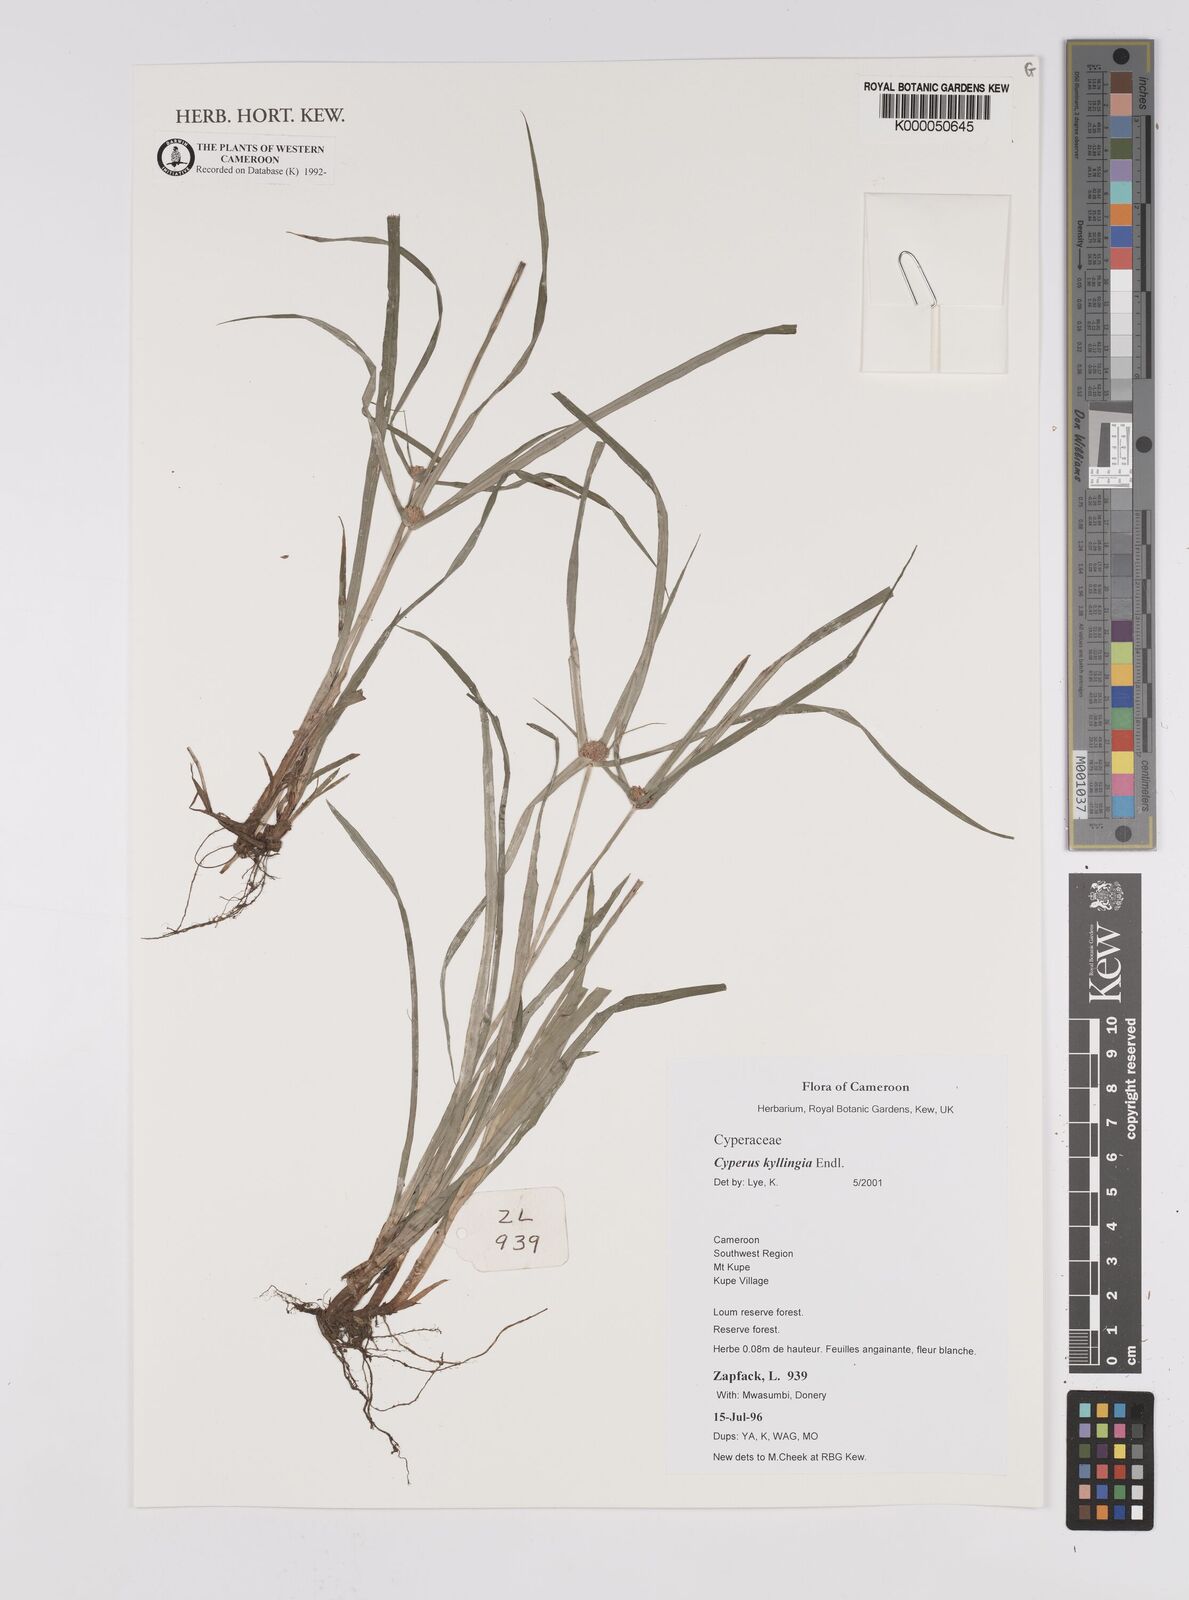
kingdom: Plantae
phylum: Tracheophyta
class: Liliopsida
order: Poales
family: Cyperaceae
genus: Rhynchospora
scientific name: Rhynchospora colorata
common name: Star sedge
